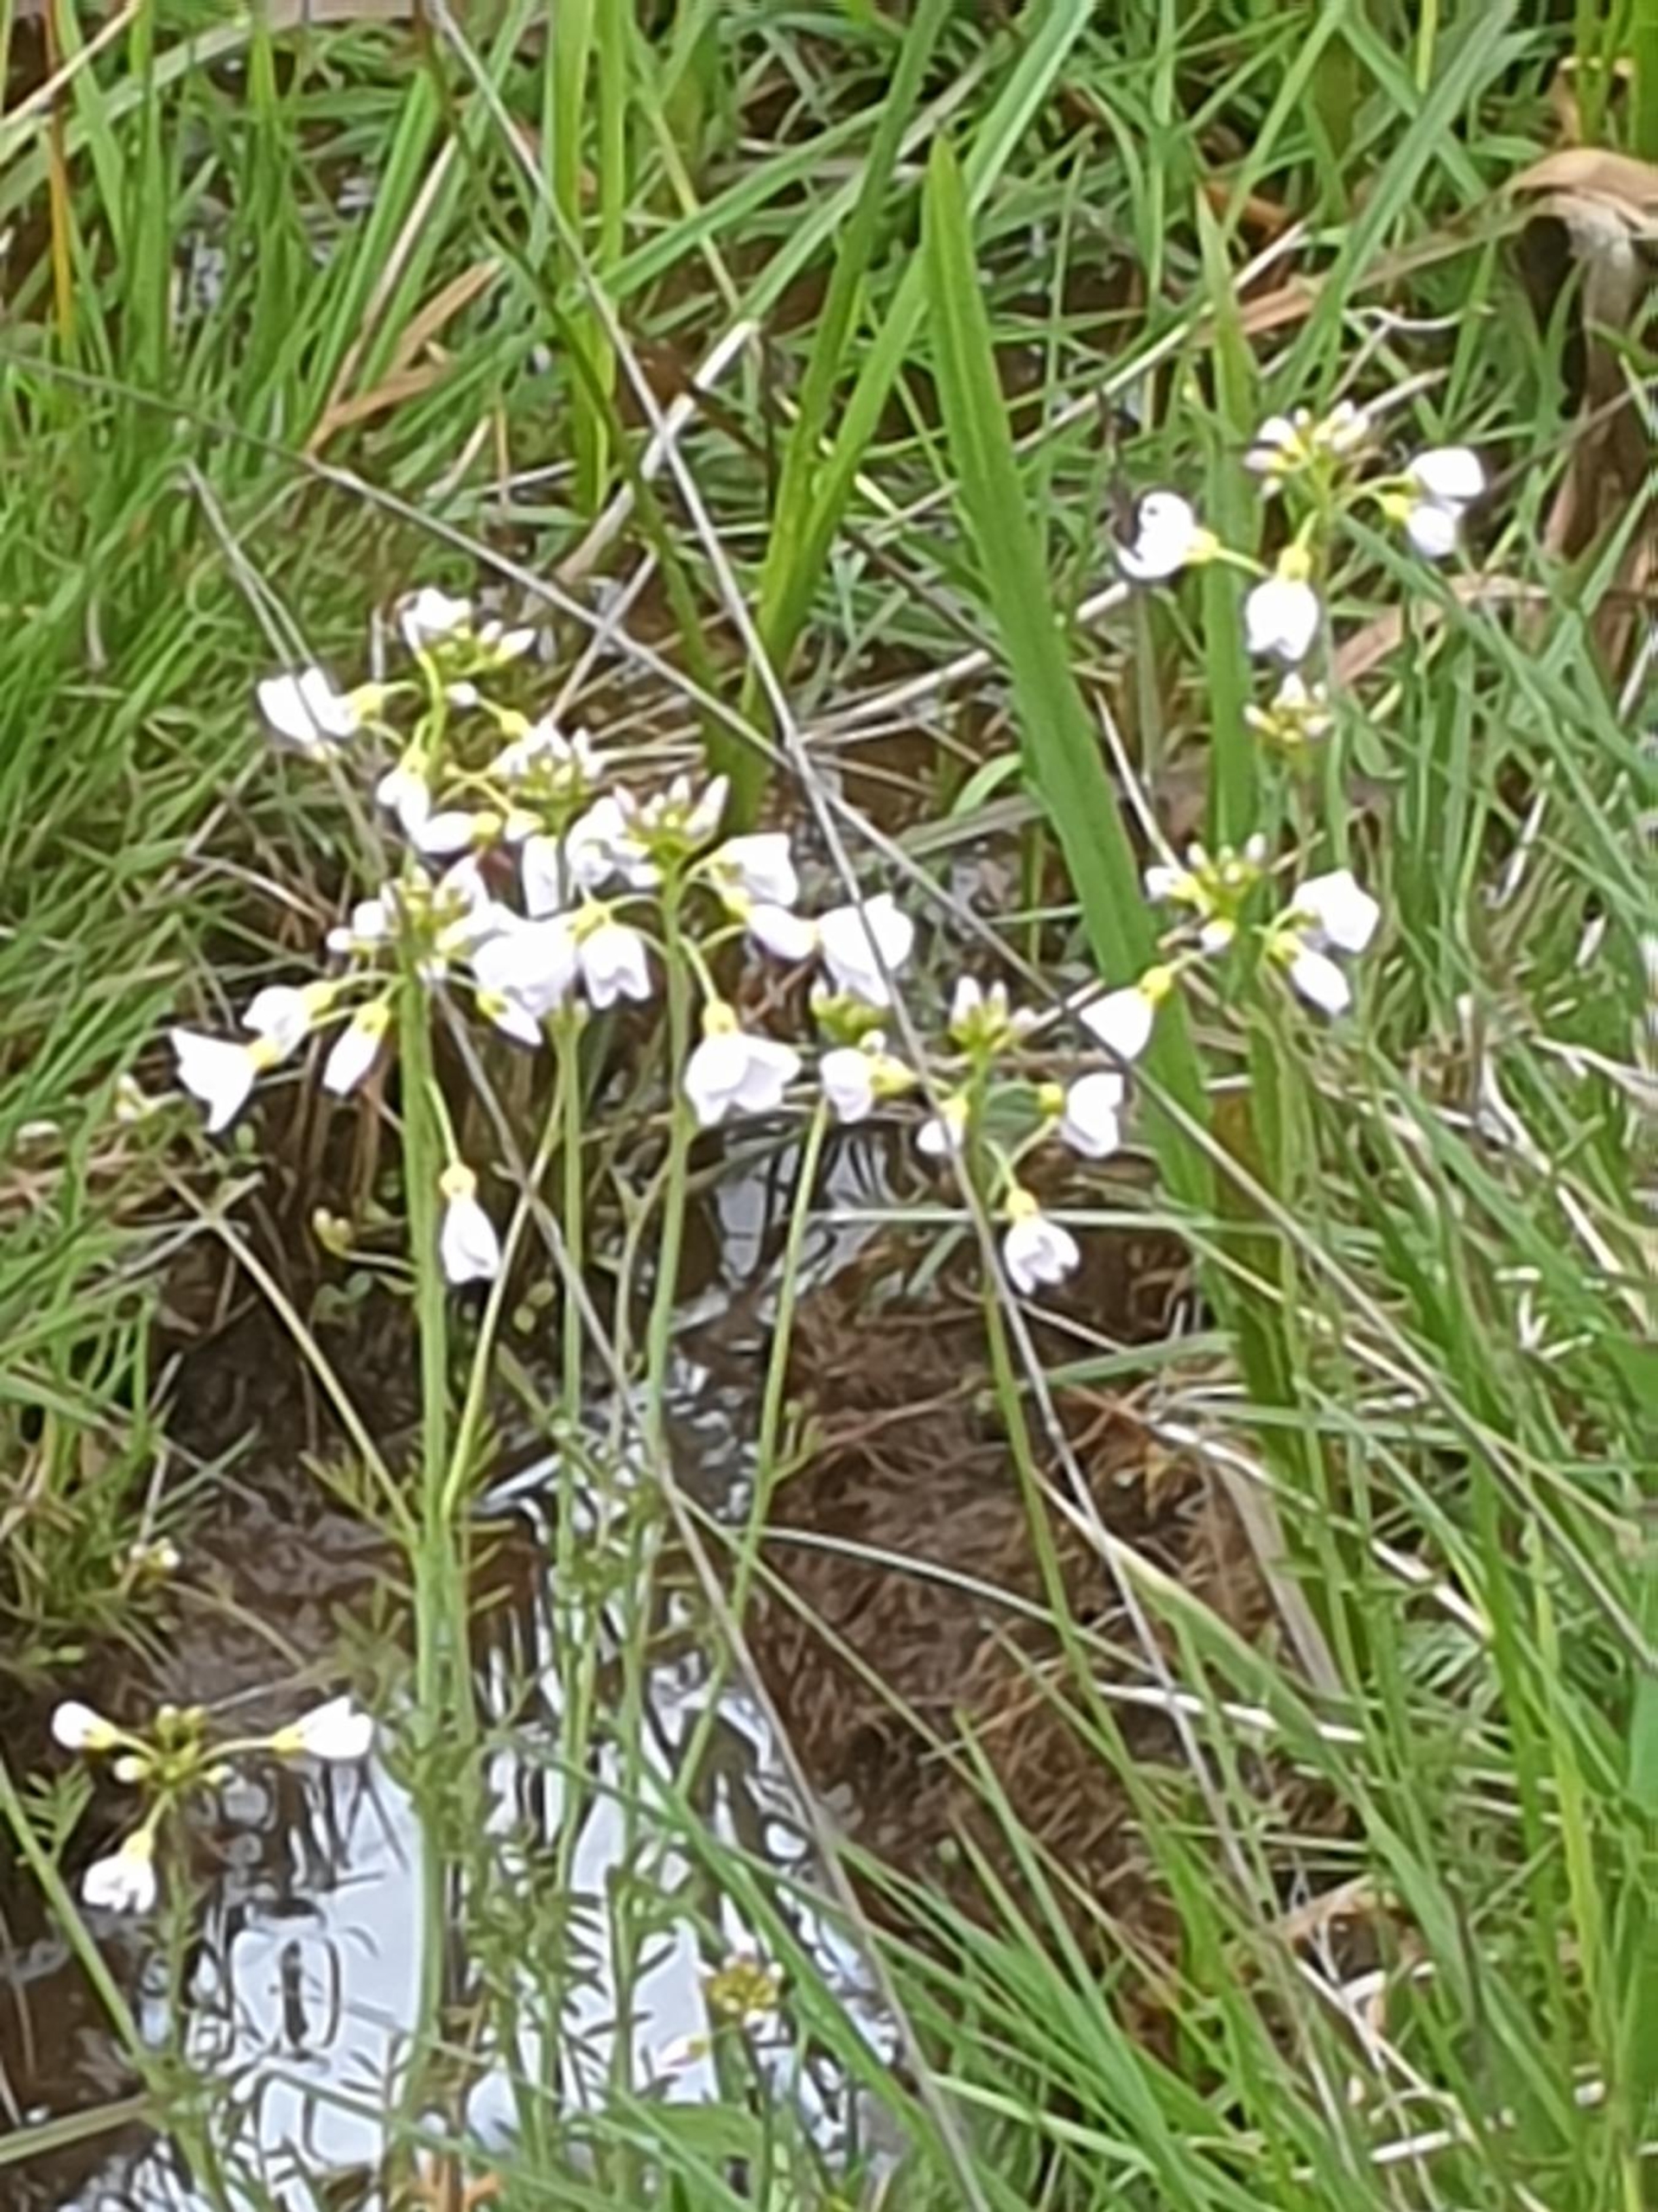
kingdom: Plantae
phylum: Tracheophyta
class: Magnoliopsida
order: Brassicales
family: Brassicaceae
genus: Cardamine
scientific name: Cardamine pratensis
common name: Engkarse
